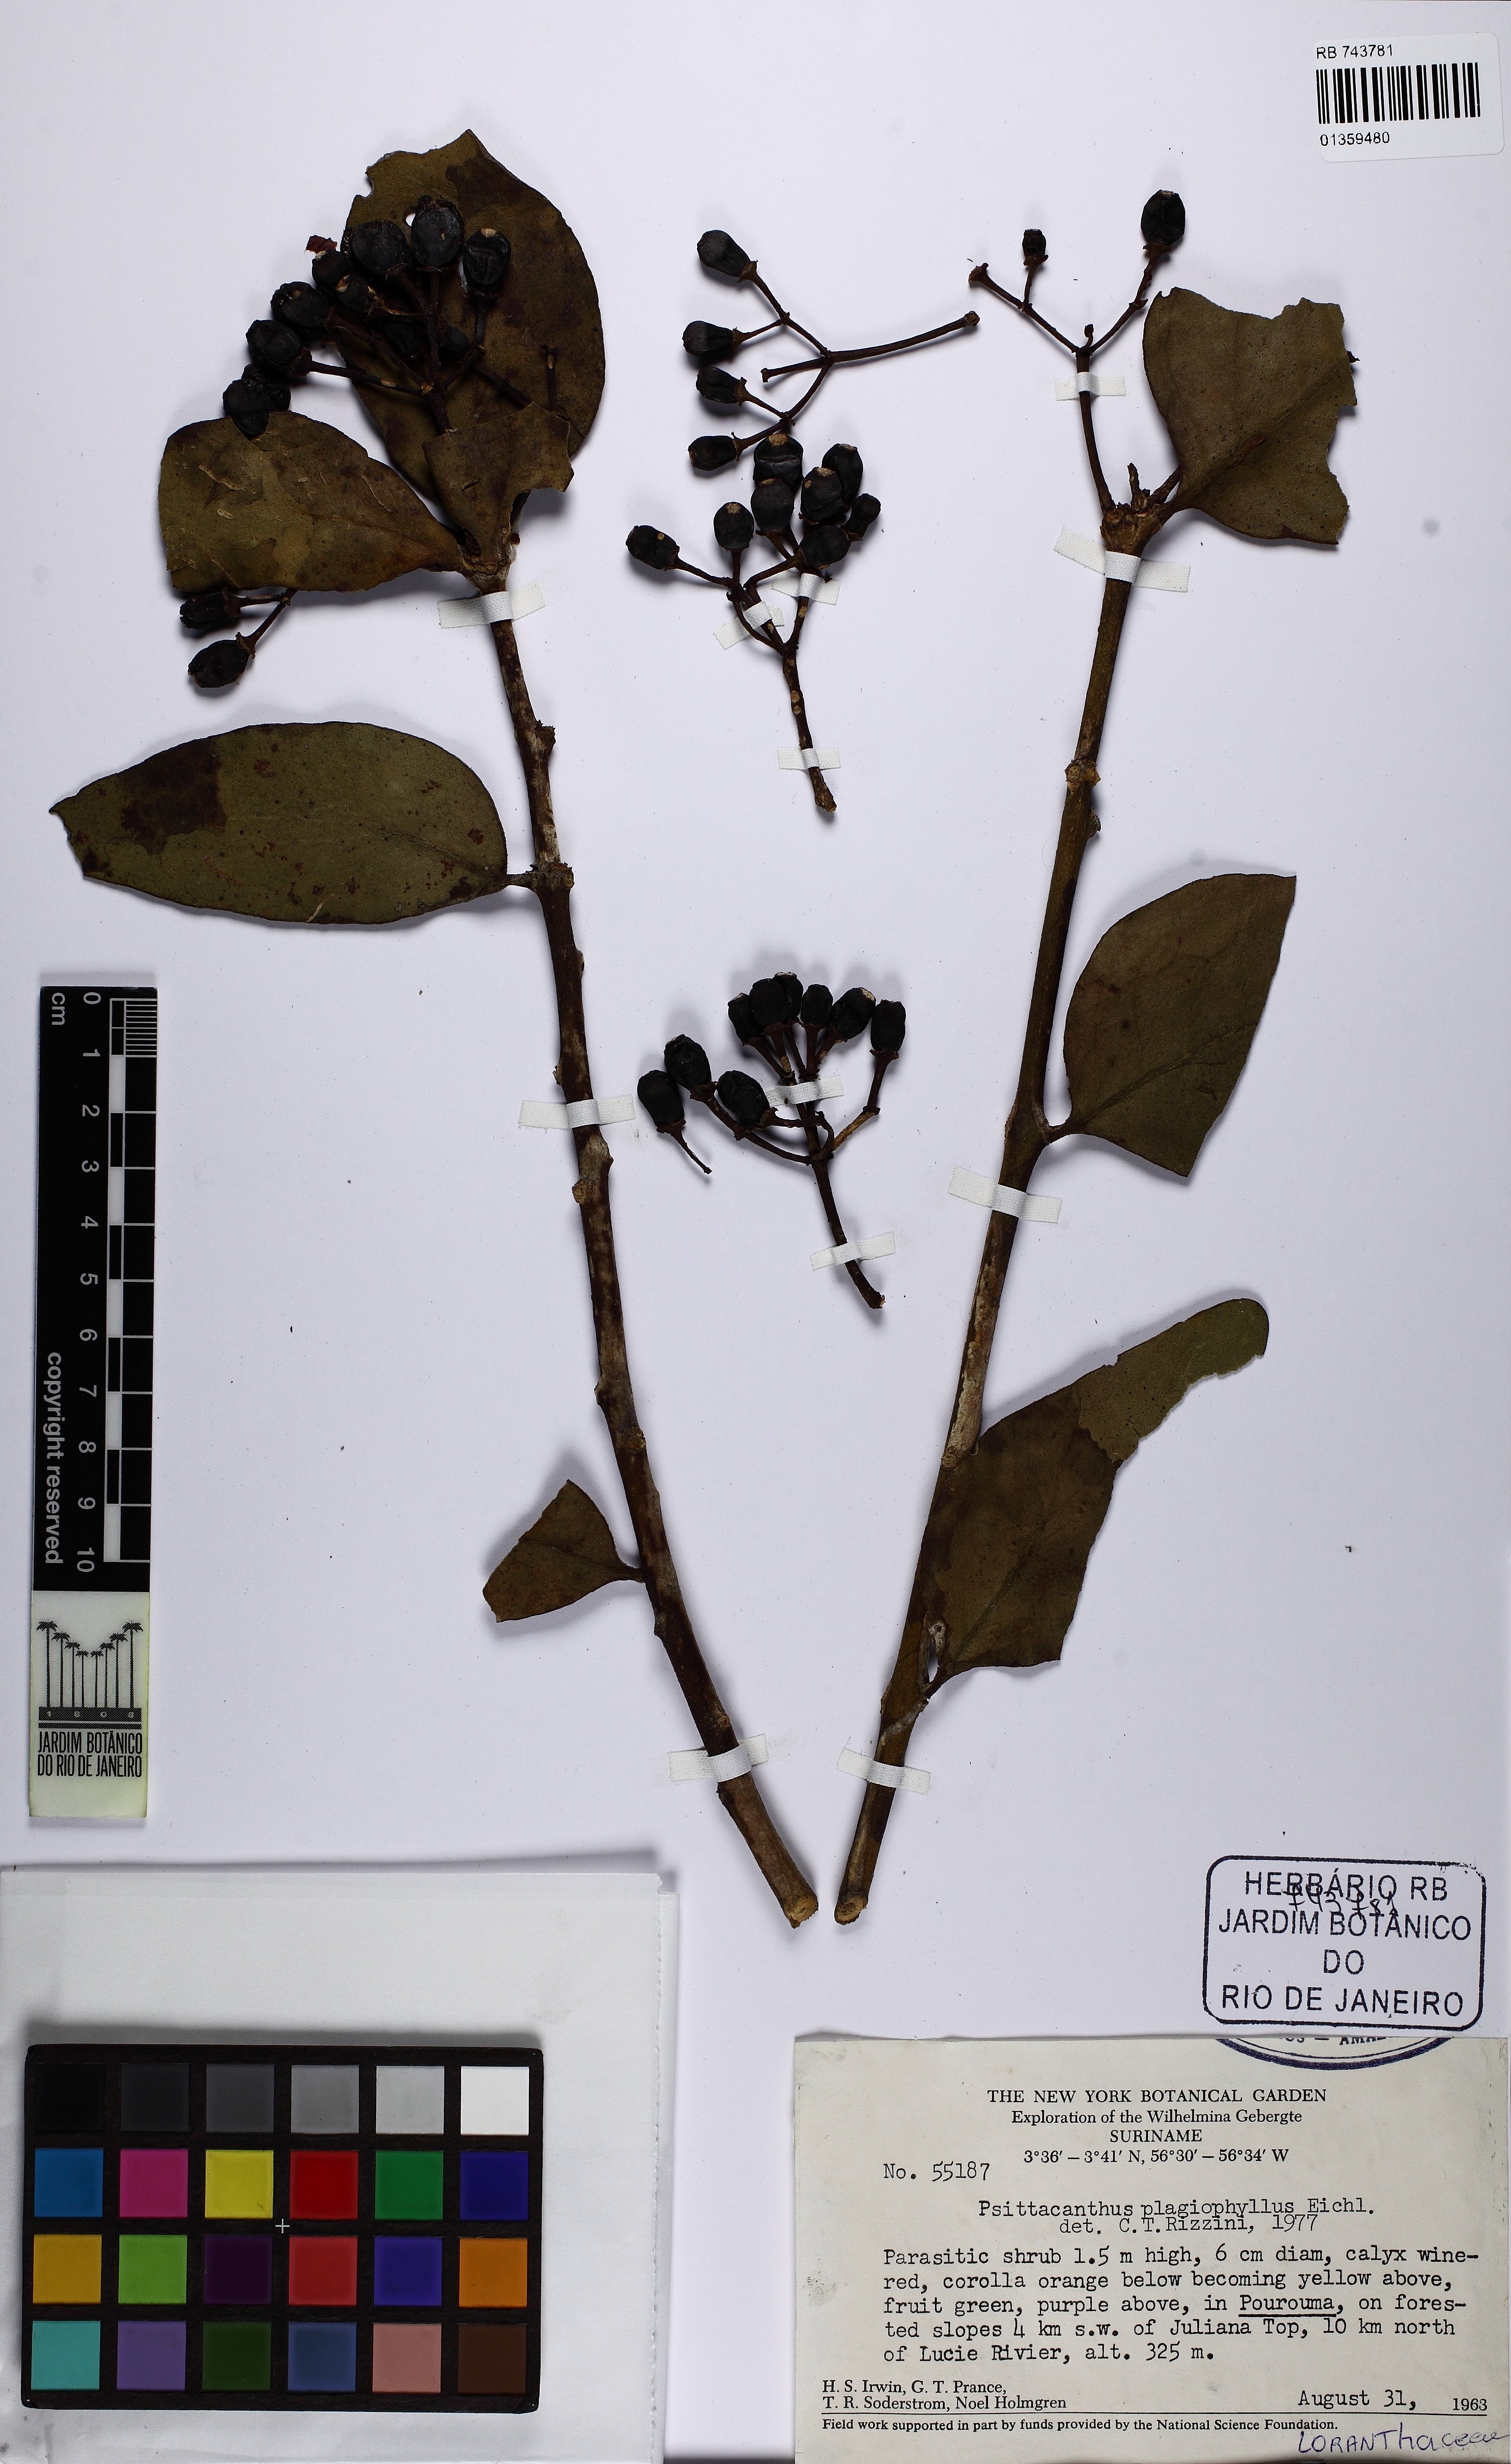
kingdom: Plantae
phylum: Tracheophyta
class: Magnoliopsida
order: Santalales
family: Loranthaceae
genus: Psittacanthus
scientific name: Psittacanthus plagiophyllus
